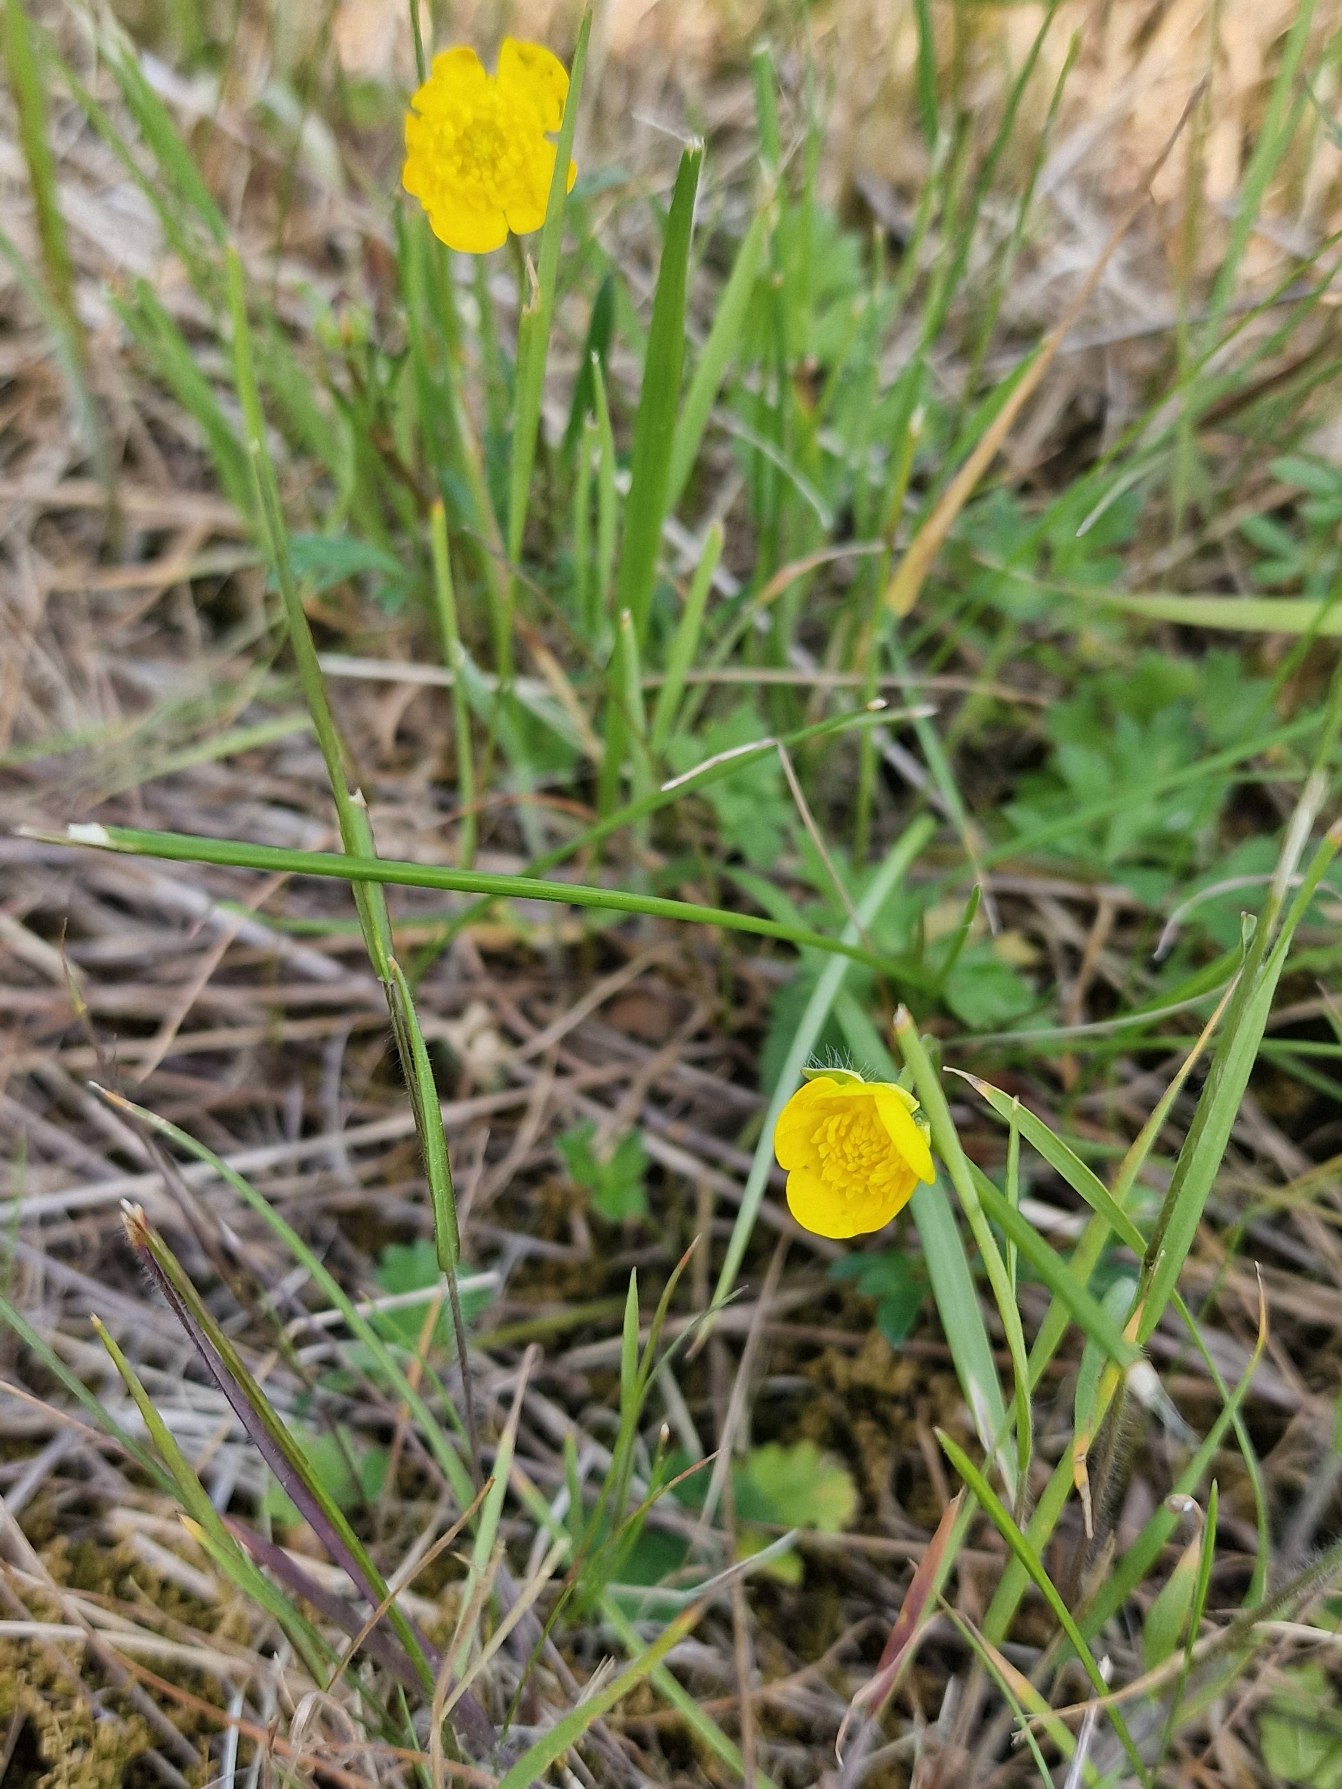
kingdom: Plantae
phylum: Tracheophyta
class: Magnoliopsida
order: Ranunculales
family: Ranunculaceae
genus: Ranunculus
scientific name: Ranunculus bulbosus
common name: Knold-ranunkel
